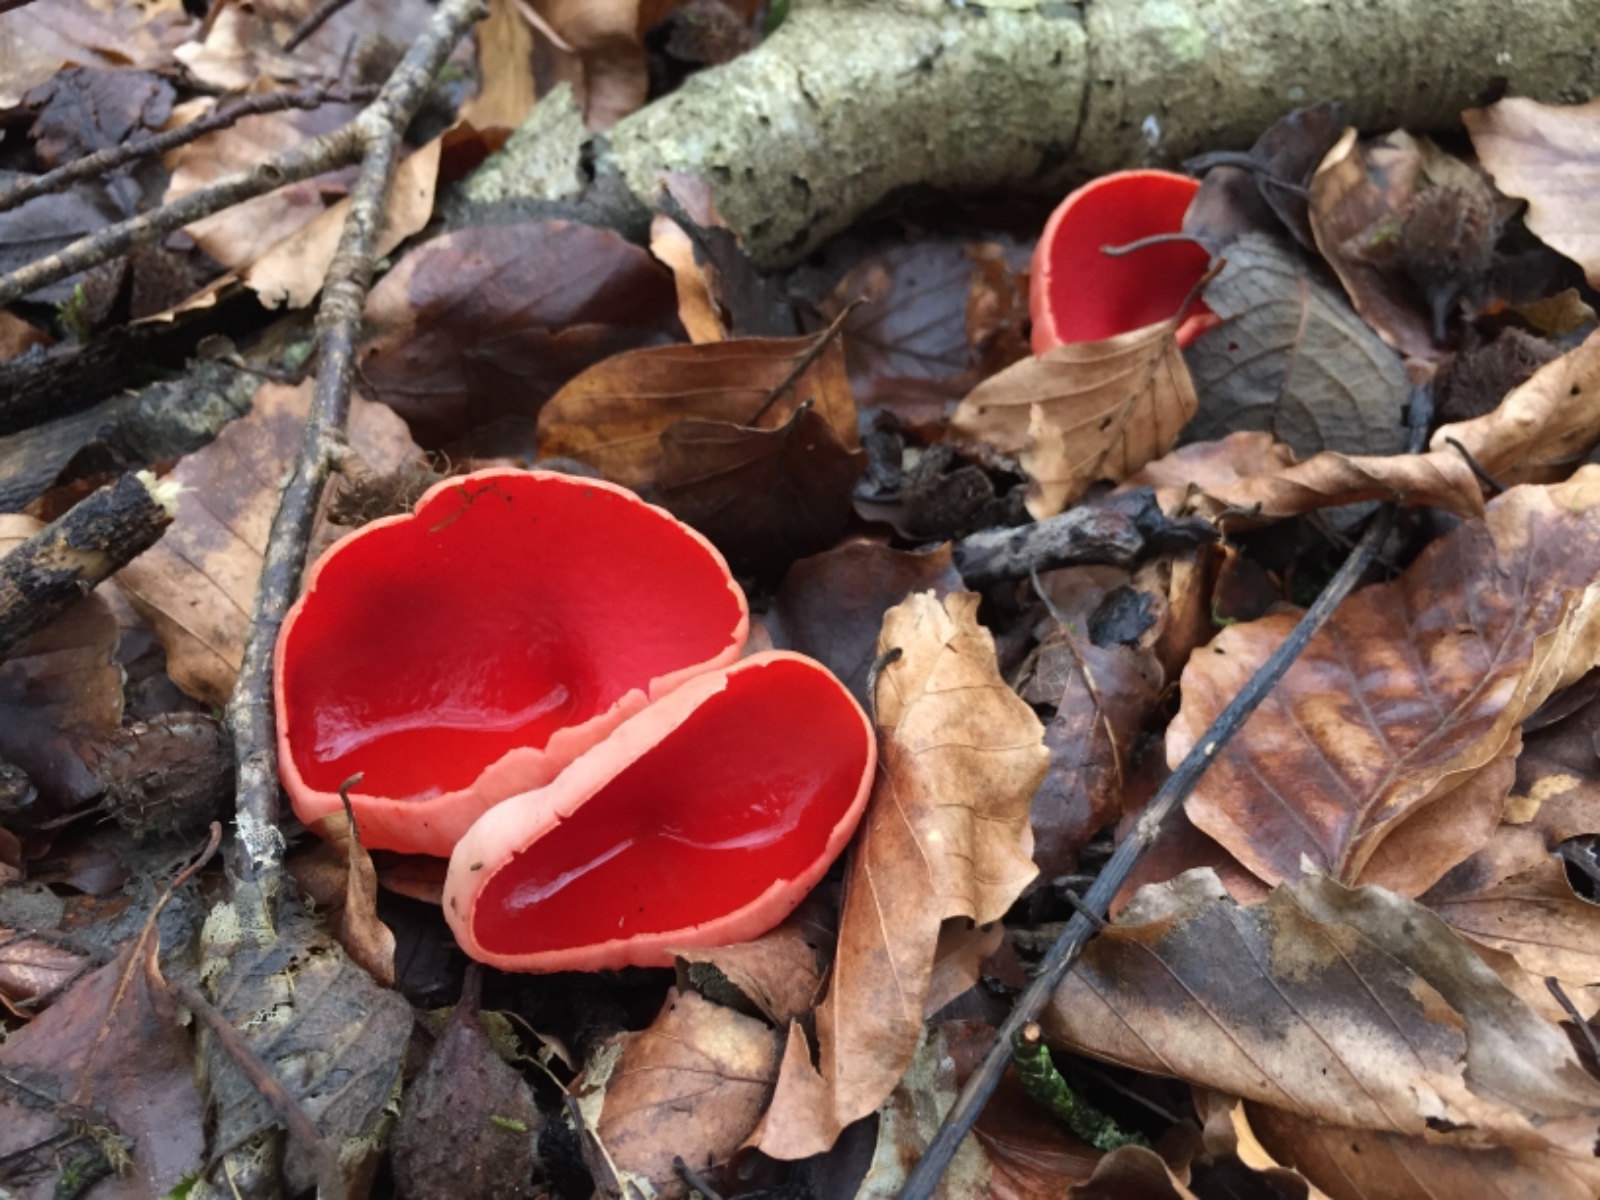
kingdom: Fungi
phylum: Ascomycota
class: Pezizomycetes
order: Pezizales
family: Sarcoscyphaceae
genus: Sarcoscypha
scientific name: Sarcoscypha austriaca
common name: krølhåret pragtbæger
